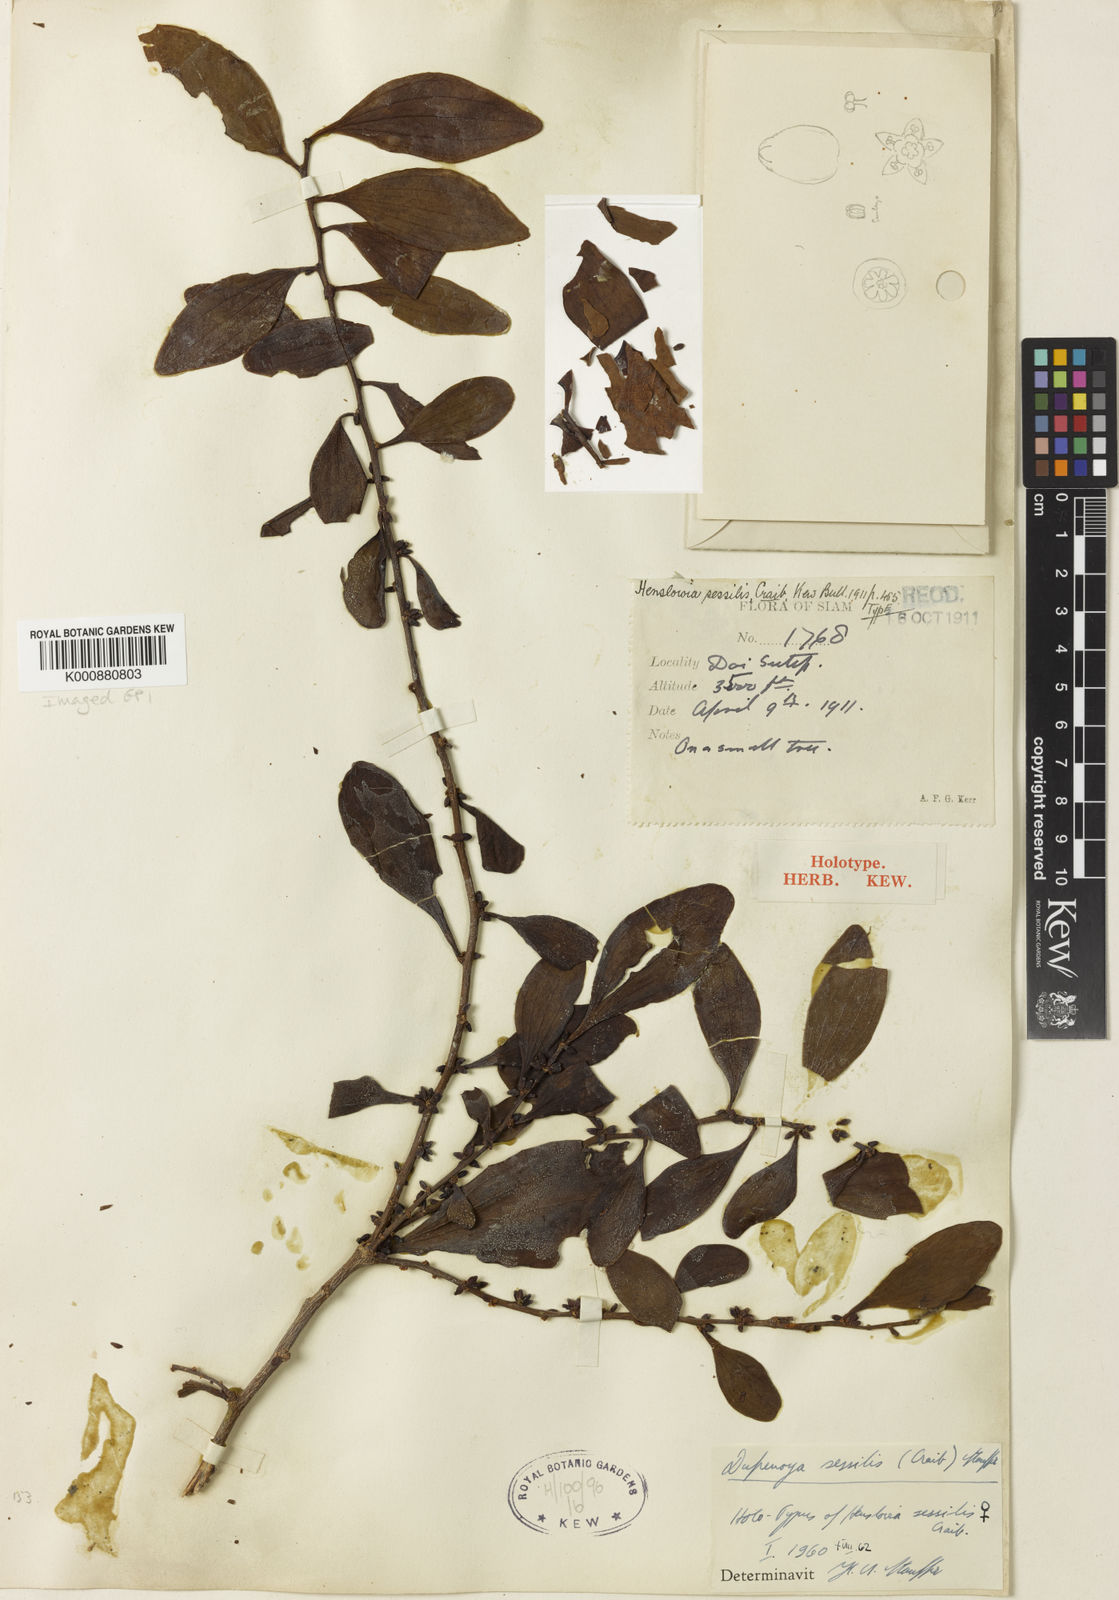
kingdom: Plantae
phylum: Tracheophyta
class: Magnoliopsida
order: Santalales
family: Amphorogynaceae
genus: Dufrenoya
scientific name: Dufrenoya sessilis
